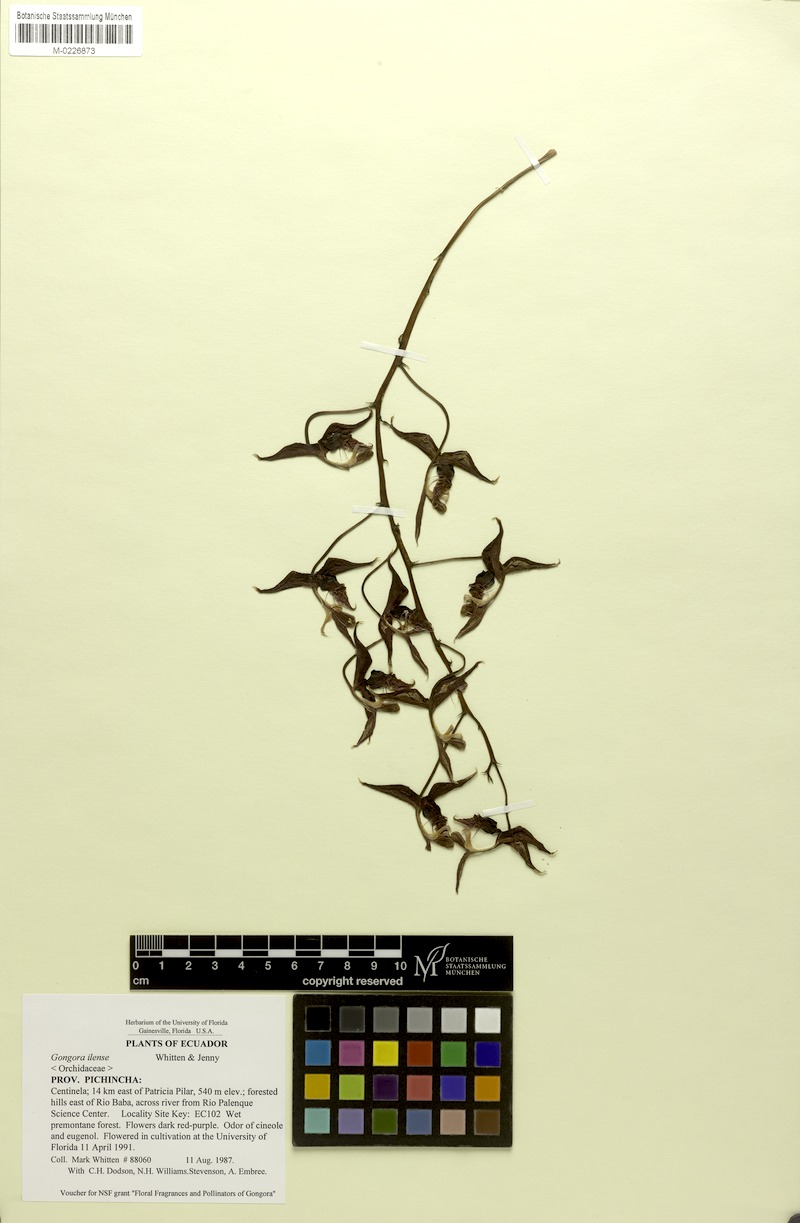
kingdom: Plantae
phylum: Tracheophyta
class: Liliopsida
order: Asparagales
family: Orchidaceae
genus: Gongora
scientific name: Gongora ilense
